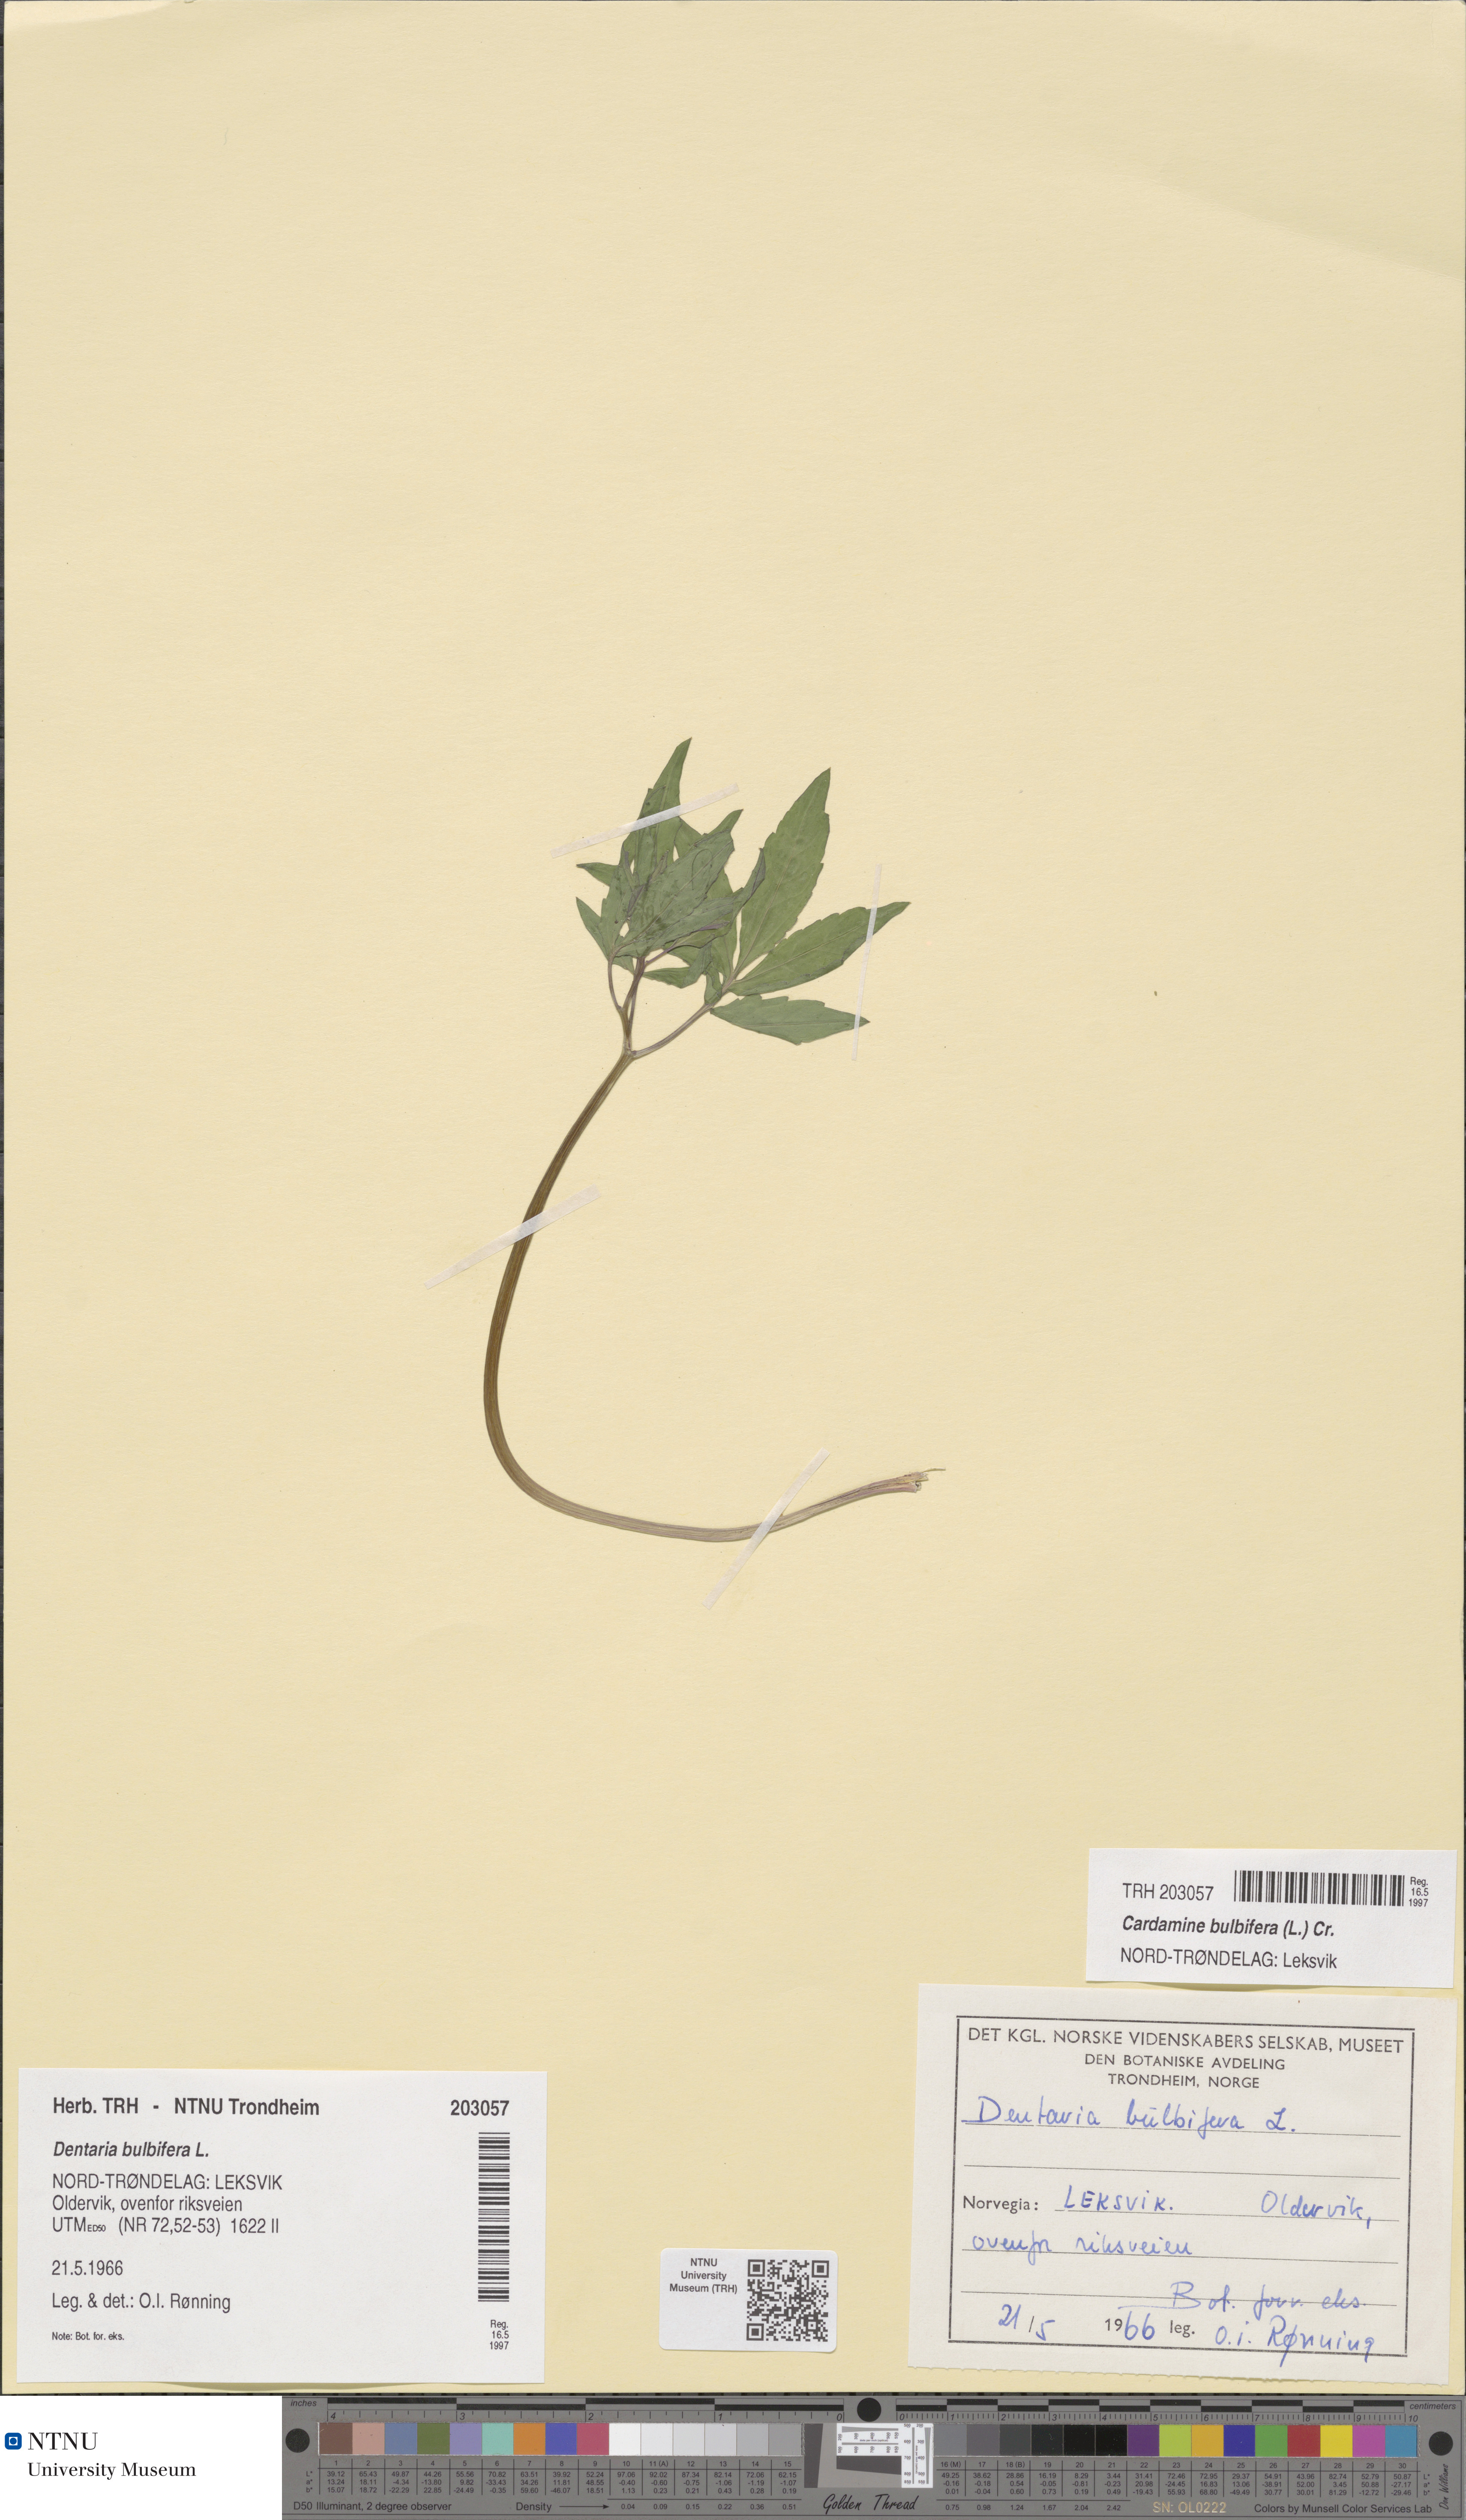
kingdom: Plantae
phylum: Tracheophyta
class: Magnoliopsida
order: Brassicales
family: Brassicaceae
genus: Cardamine
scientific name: Cardamine bulbifera
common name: Coralroot bittercress
